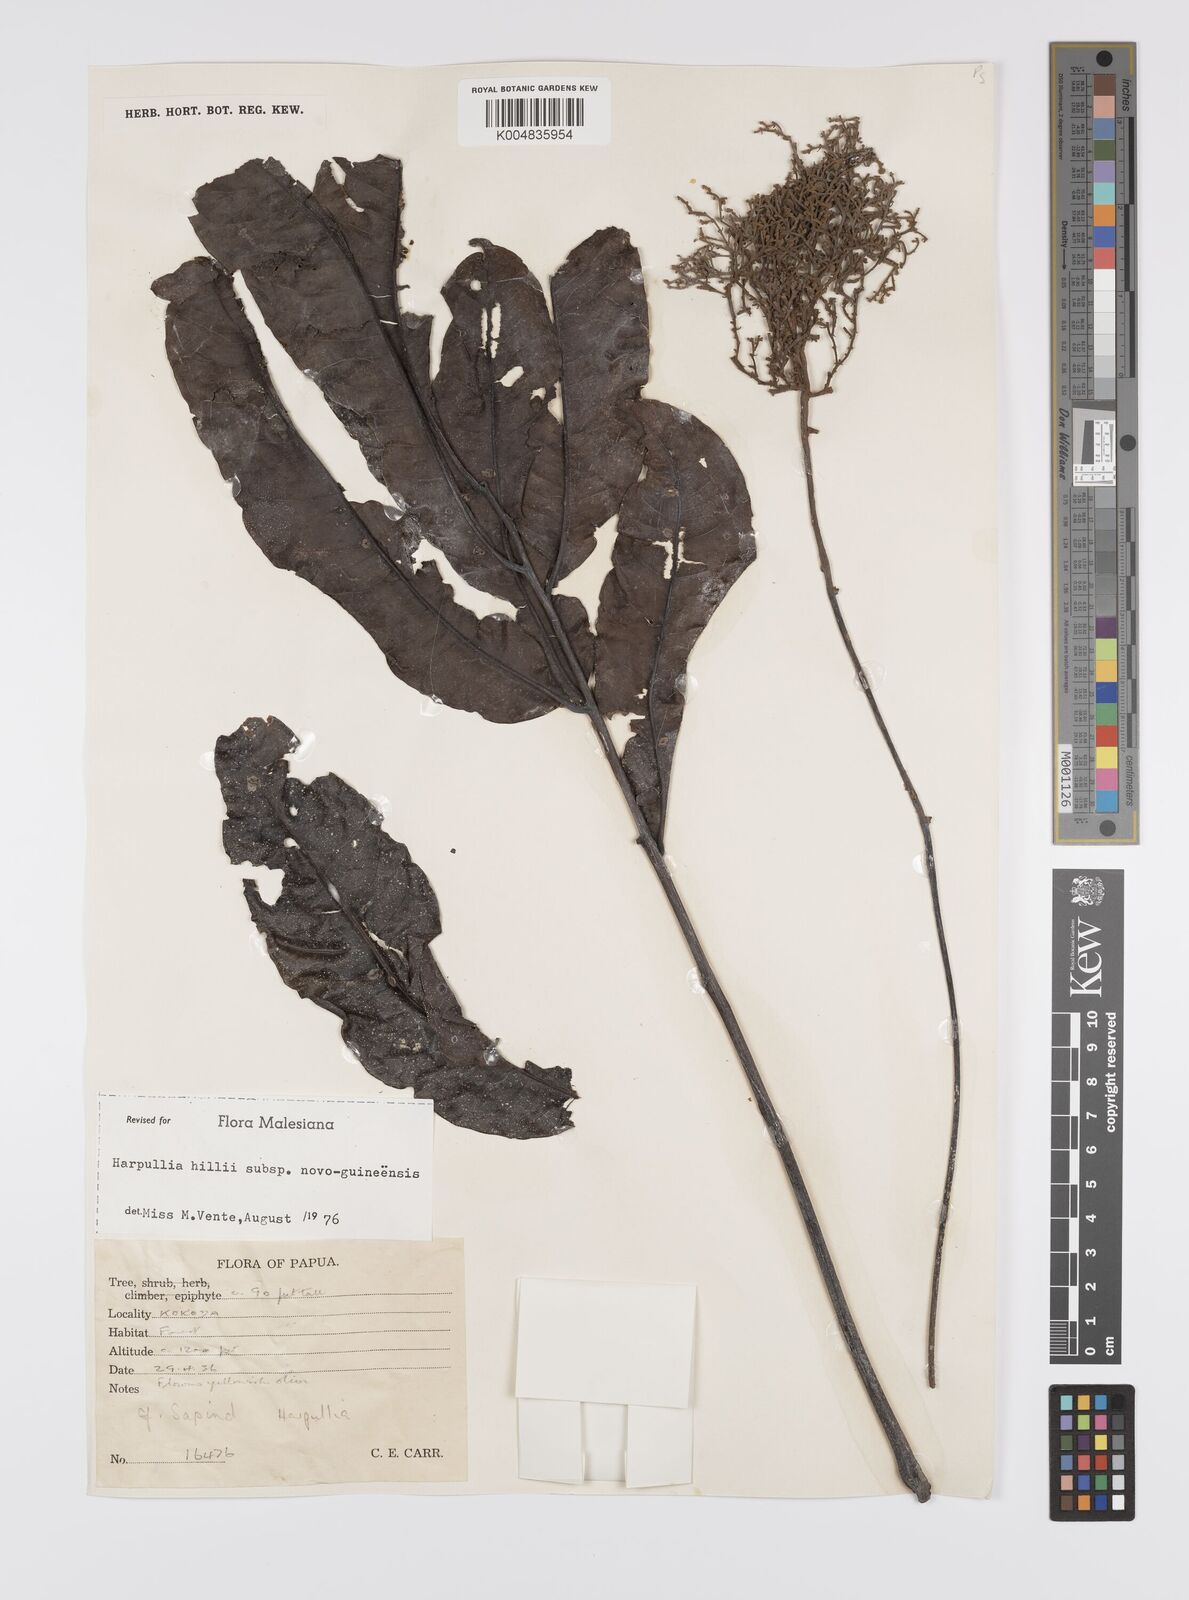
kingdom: Plantae
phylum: Tracheophyta
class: Magnoliopsida
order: Sapindales
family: Sapindaceae
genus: Harpullia
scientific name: Harpullia cupanioides
